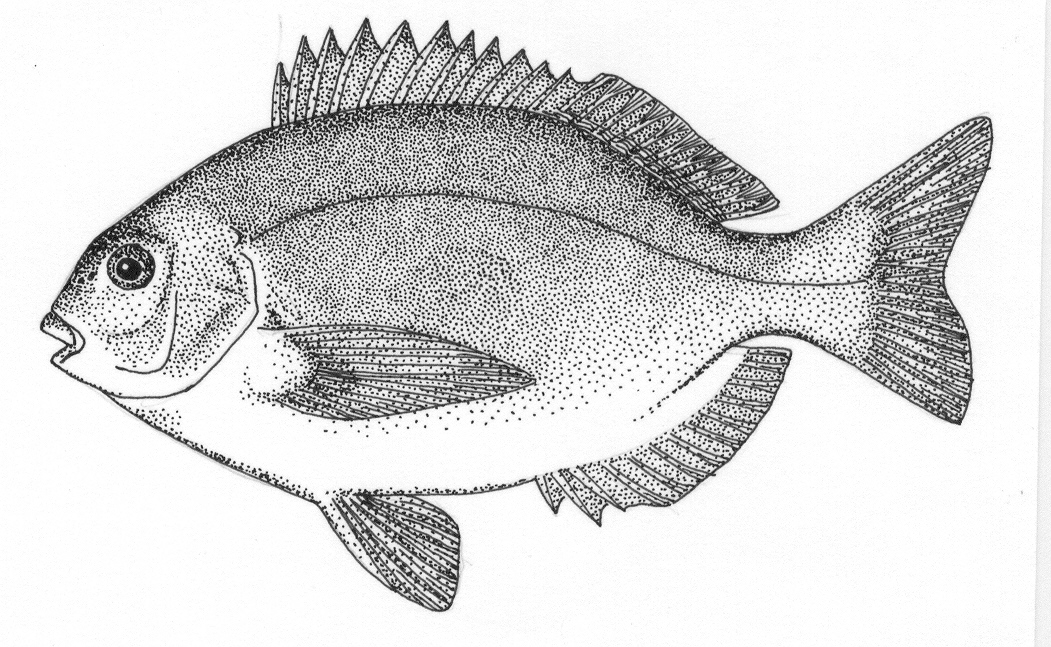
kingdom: Animalia
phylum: Chordata
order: Perciformes
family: Sparidae
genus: Pachymetopon
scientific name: Pachymetopon grande
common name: Bronze bream
